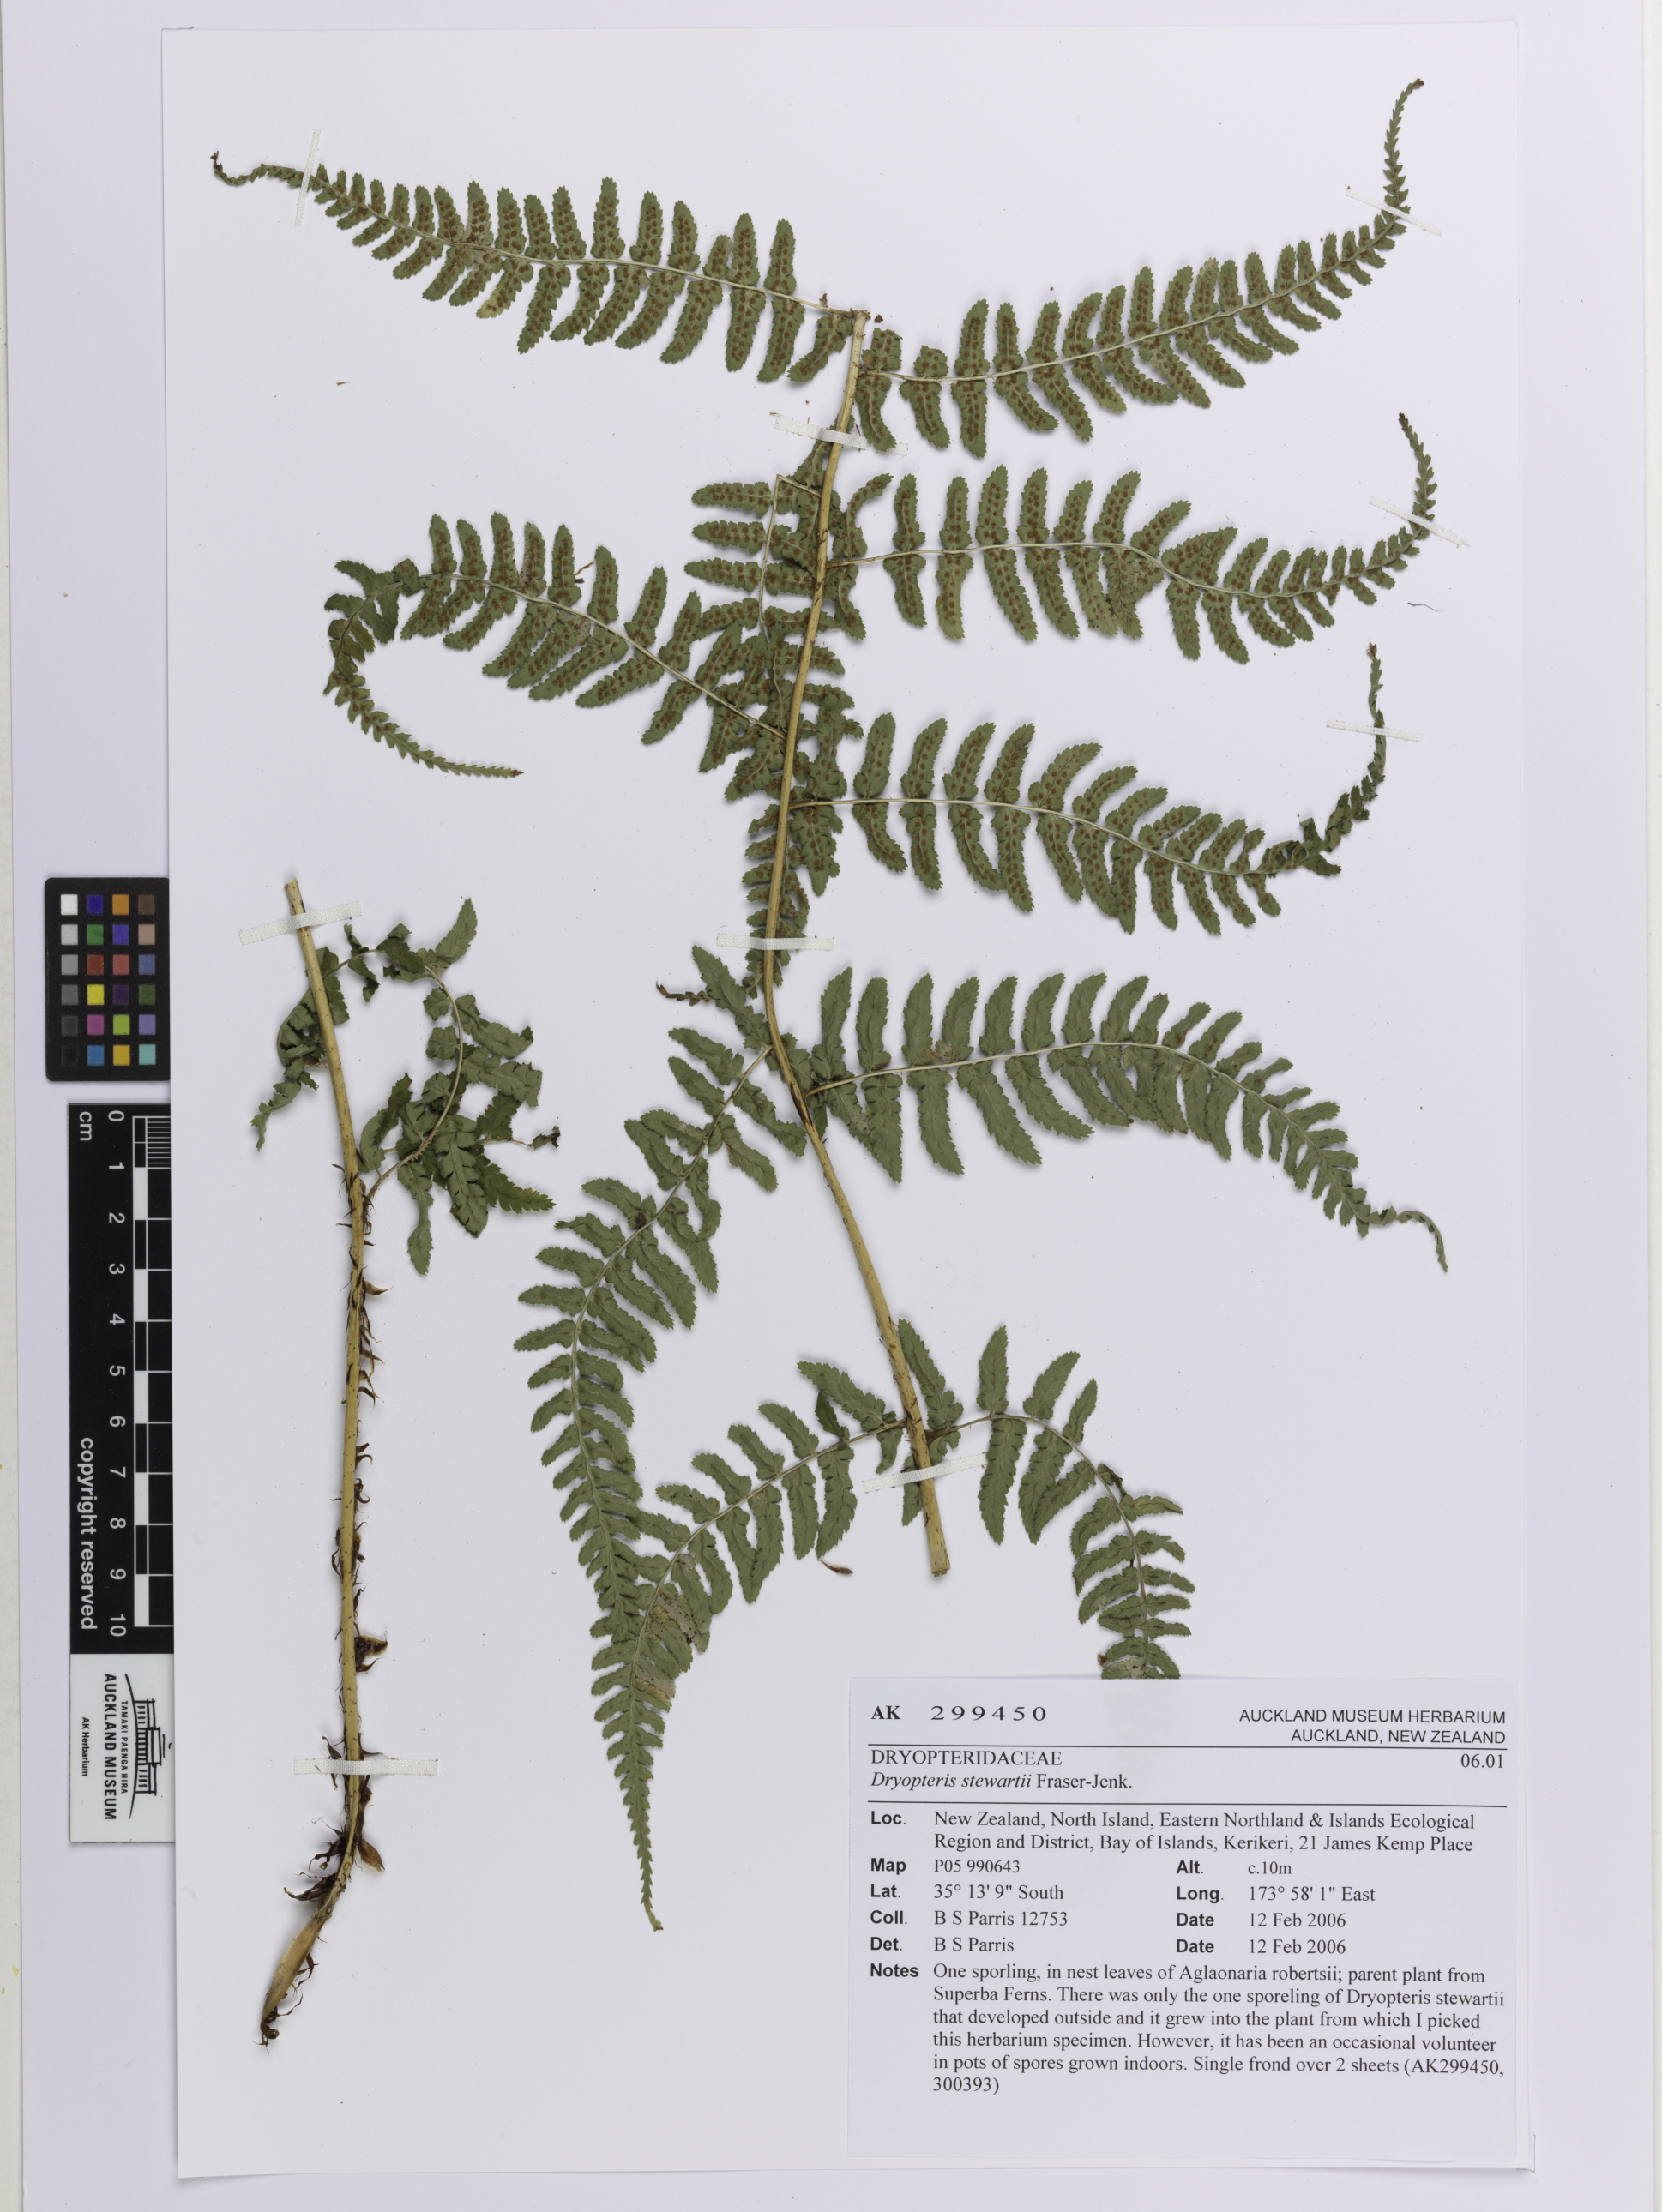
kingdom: Plantae
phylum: Tracheophyta
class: Polypodiopsida
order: Polypodiales
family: Dryopteridaceae
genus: Dryopteris
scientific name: Dryopteris stewartii
